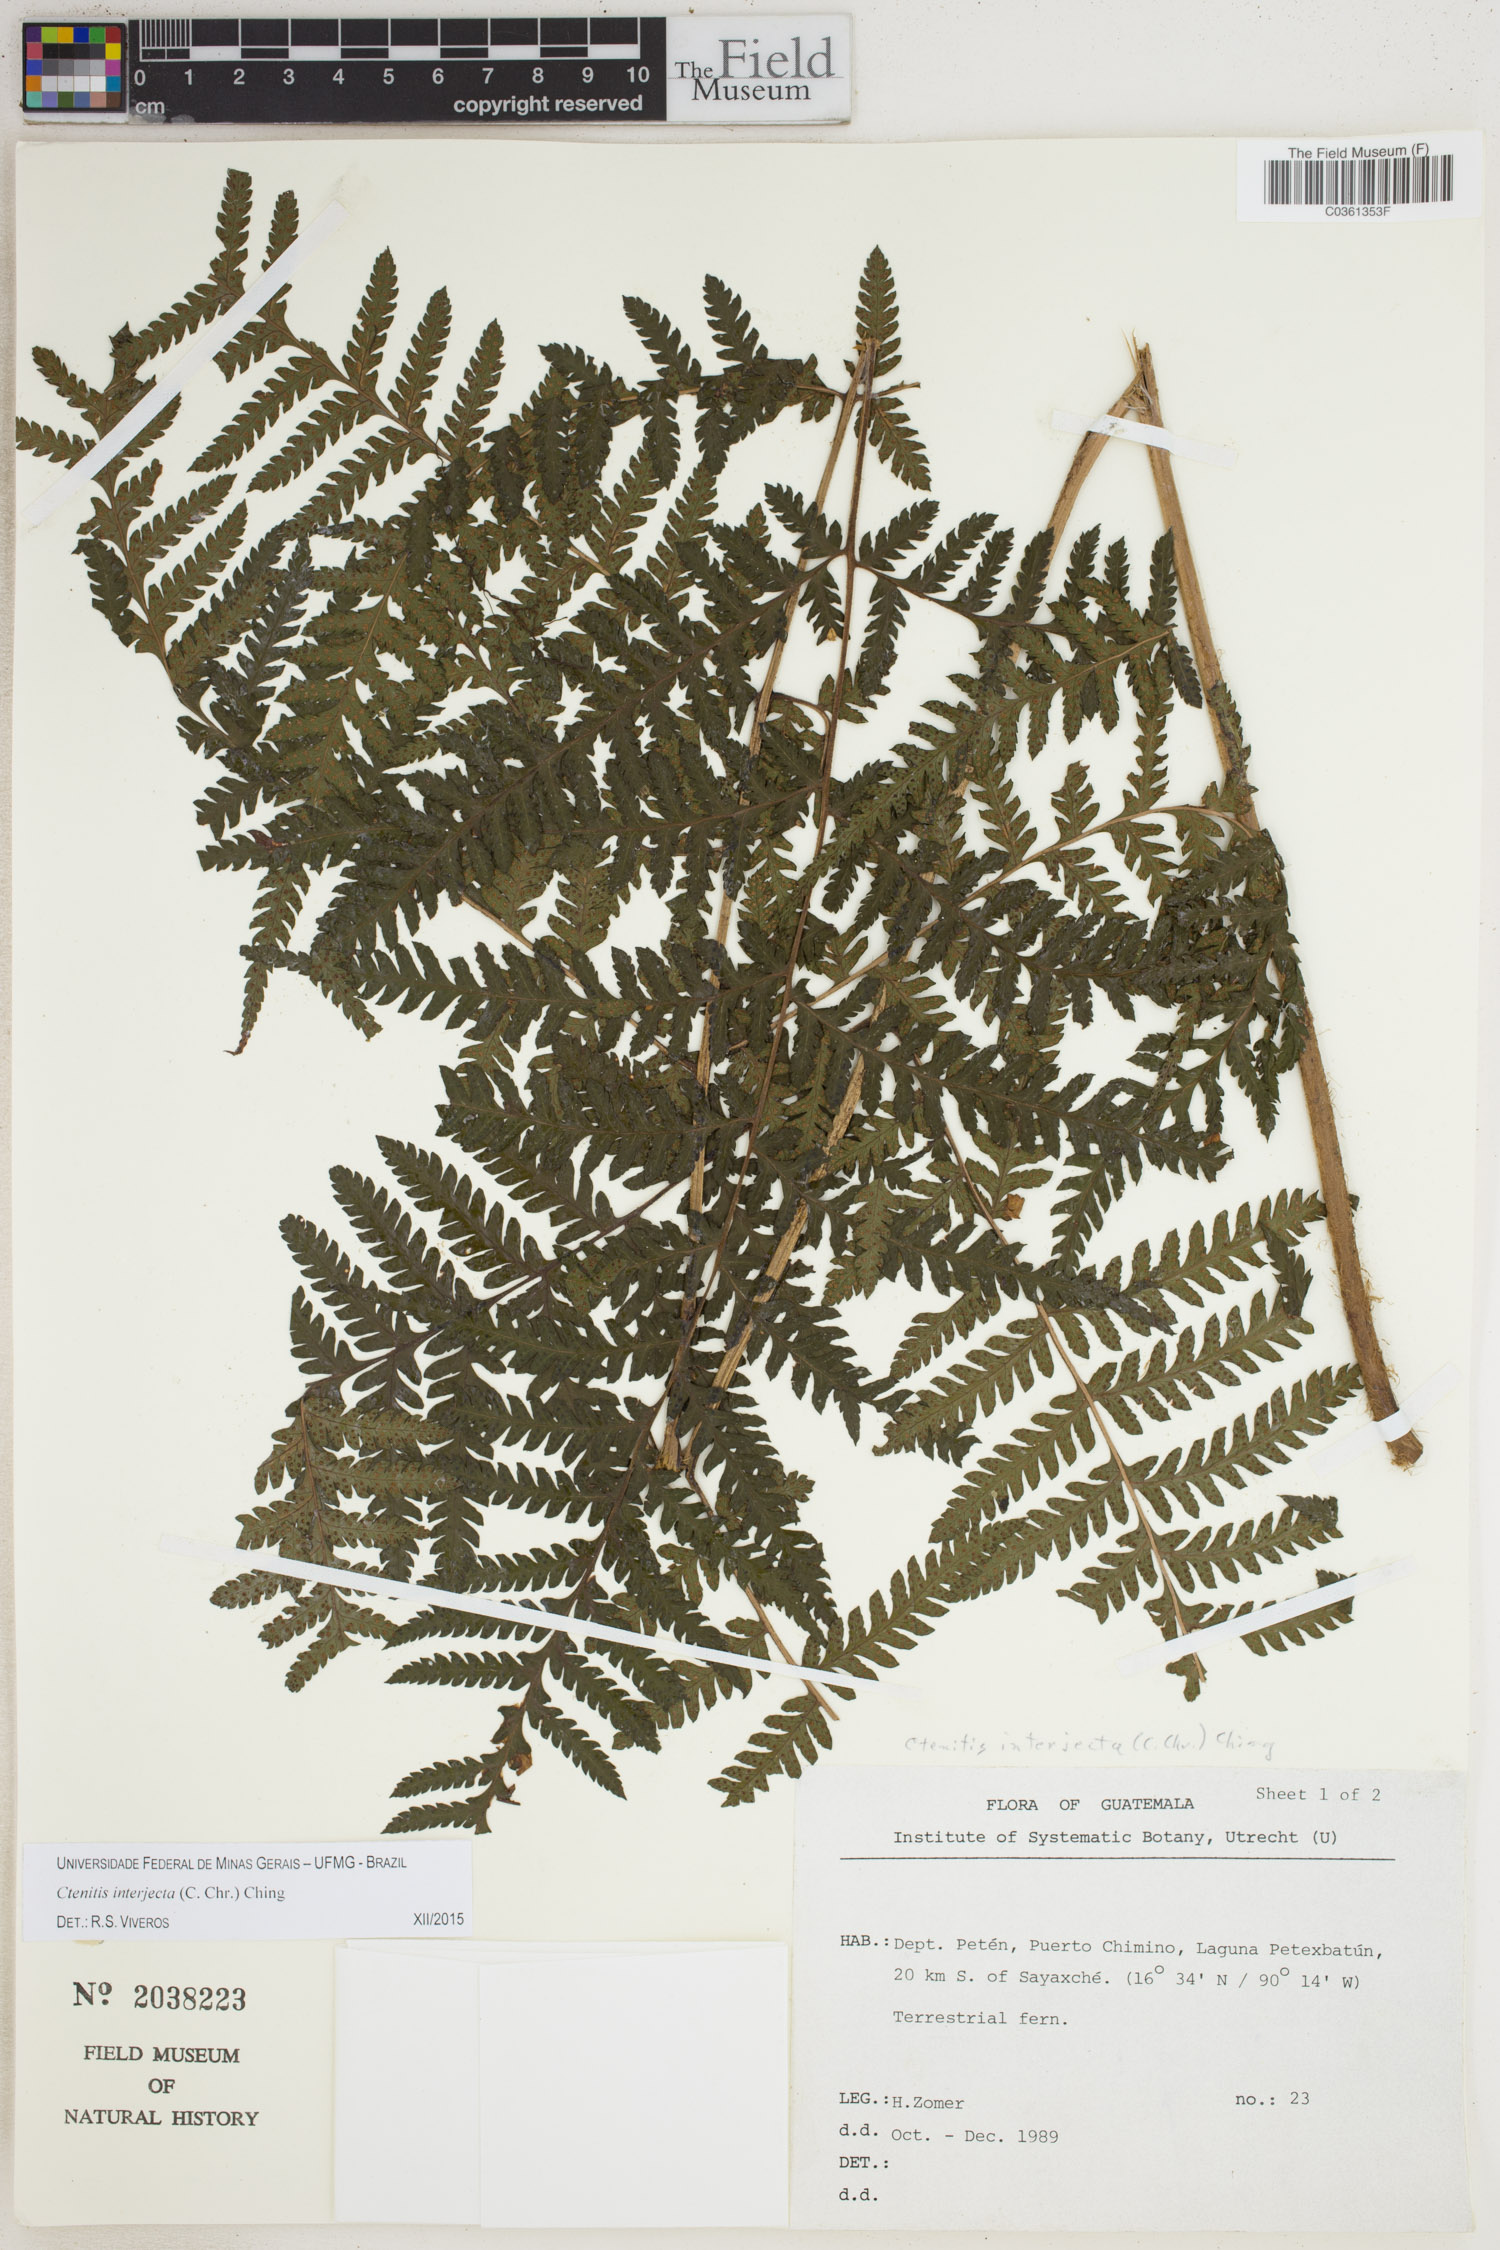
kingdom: Plantae
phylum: Tracheophyta
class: Polypodiopsida
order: Polypodiales
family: Dryopteridaceae
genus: Ctenitis
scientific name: Ctenitis interjecta
